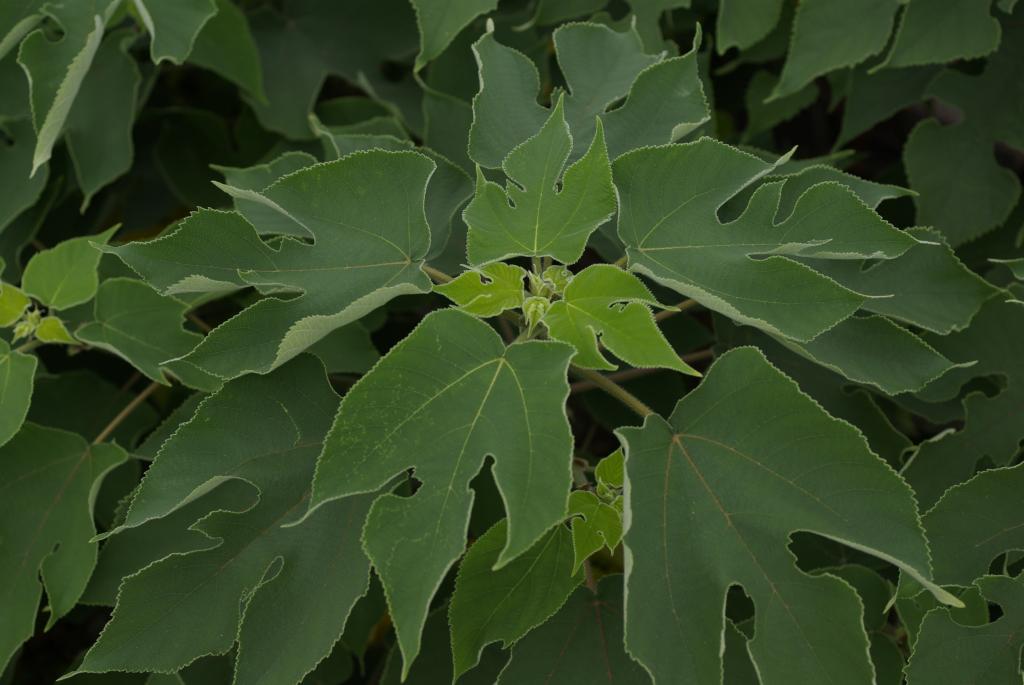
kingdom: Plantae
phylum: Tracheophyta
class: Magnoliopsida
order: Rosales
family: Moraceae
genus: Broussonetia
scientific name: Broussonetia papyrifera
